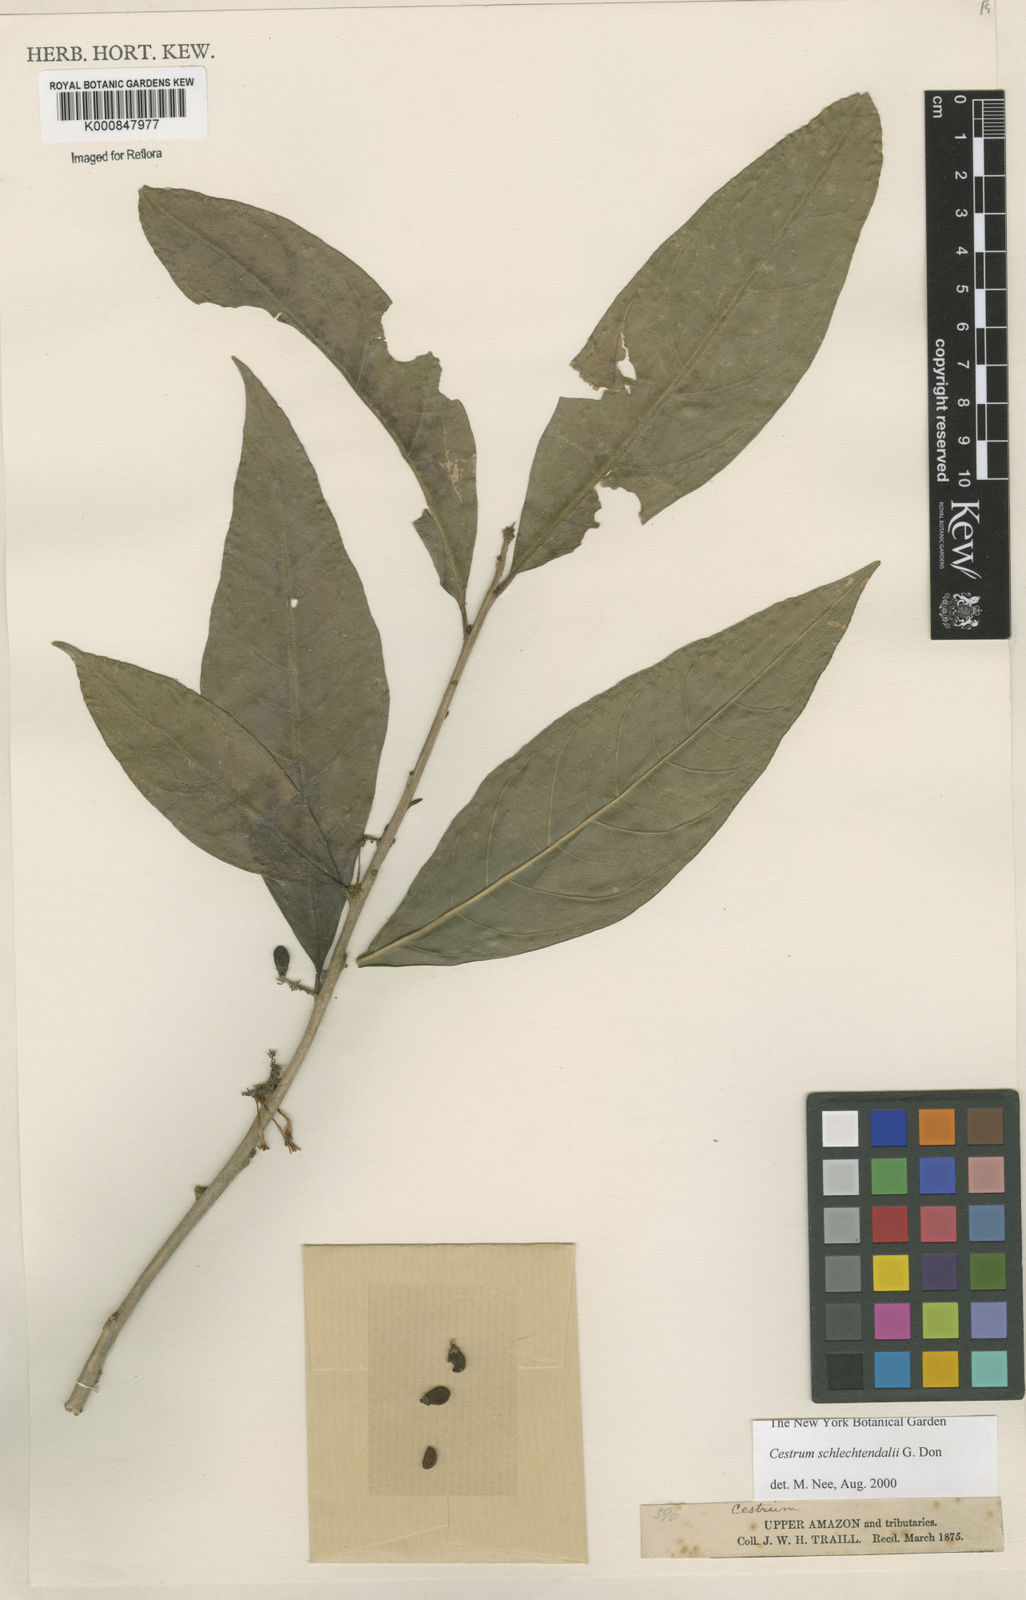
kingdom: Plantae
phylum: Tracheophyta
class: Magnoliopsida
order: Solanales
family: Solanaceae
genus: Cestrum
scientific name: Cestrum schlechtendalii
